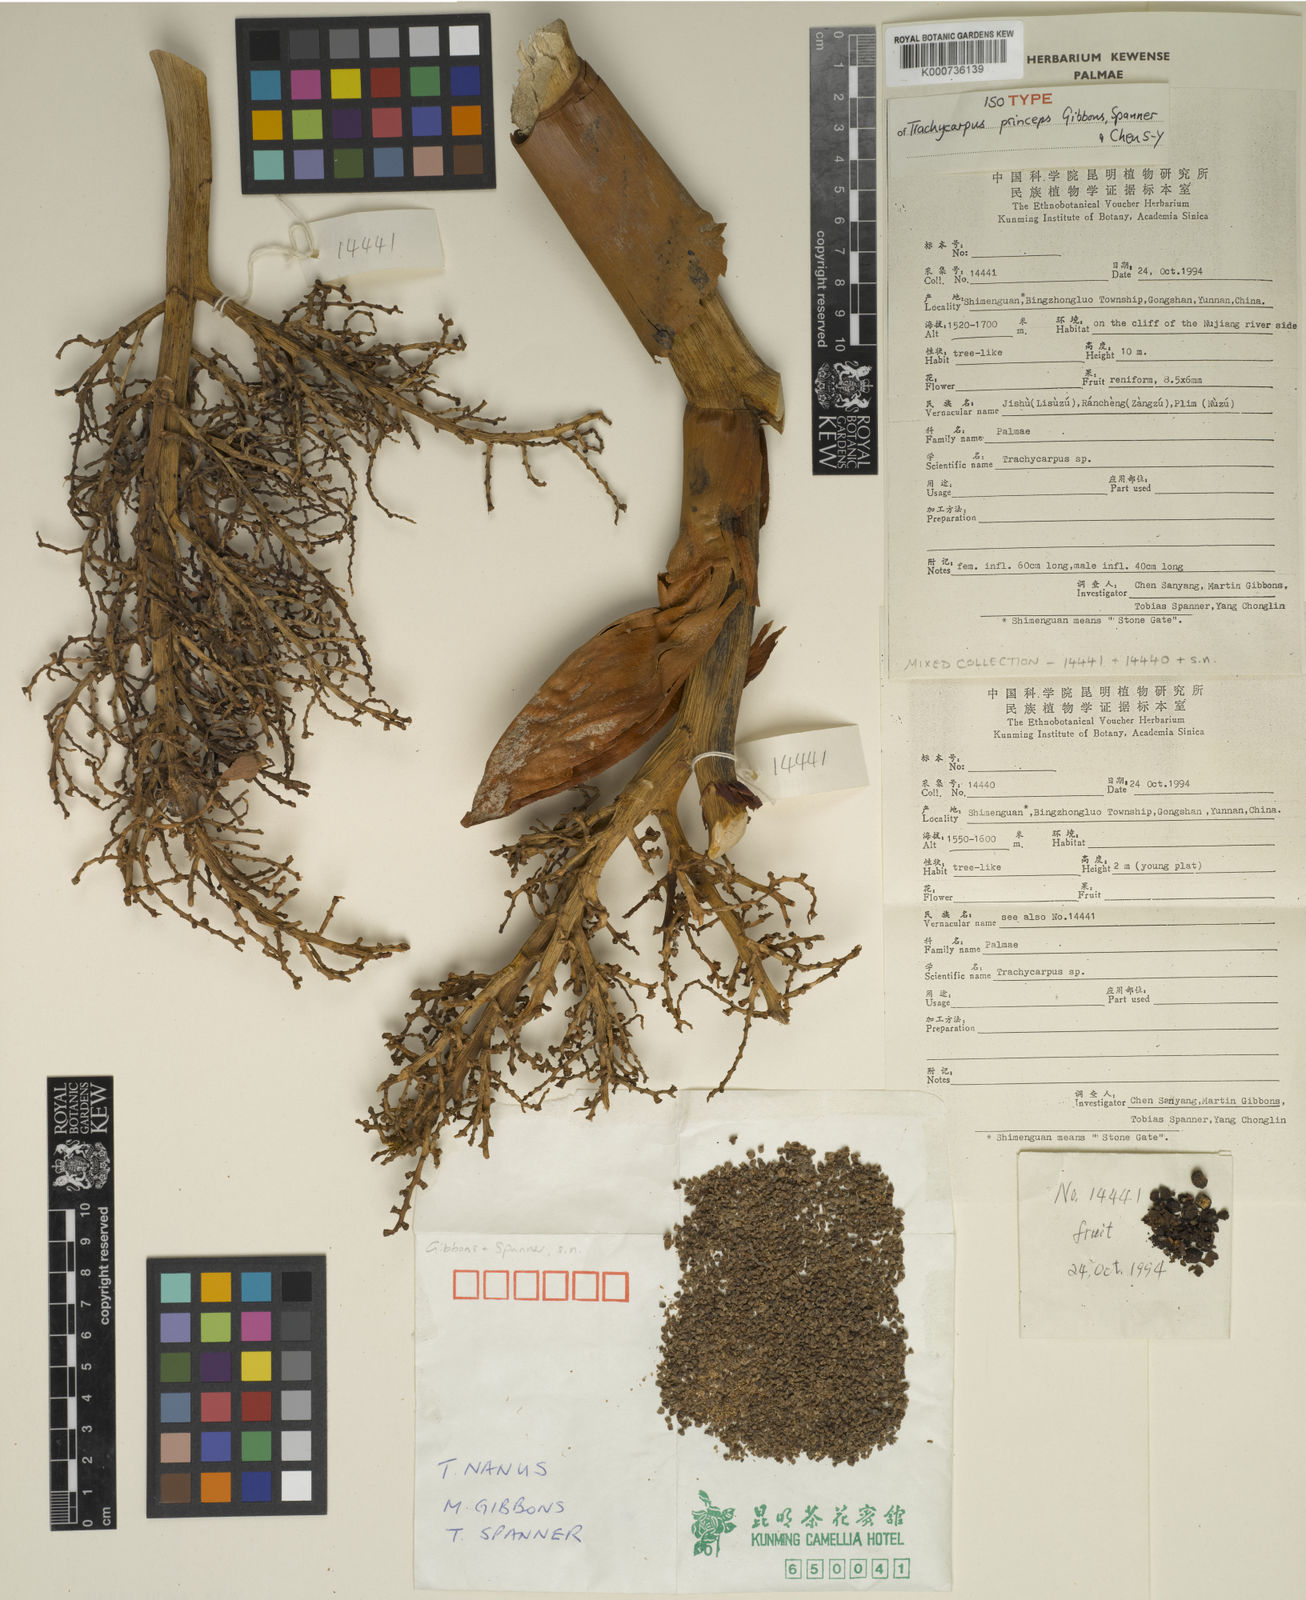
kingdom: Plantae
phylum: Tracheophyta
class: Liliopsida
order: Arecales
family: Arecaceae
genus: Trachycarpus
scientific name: Trachycarpus princeps
